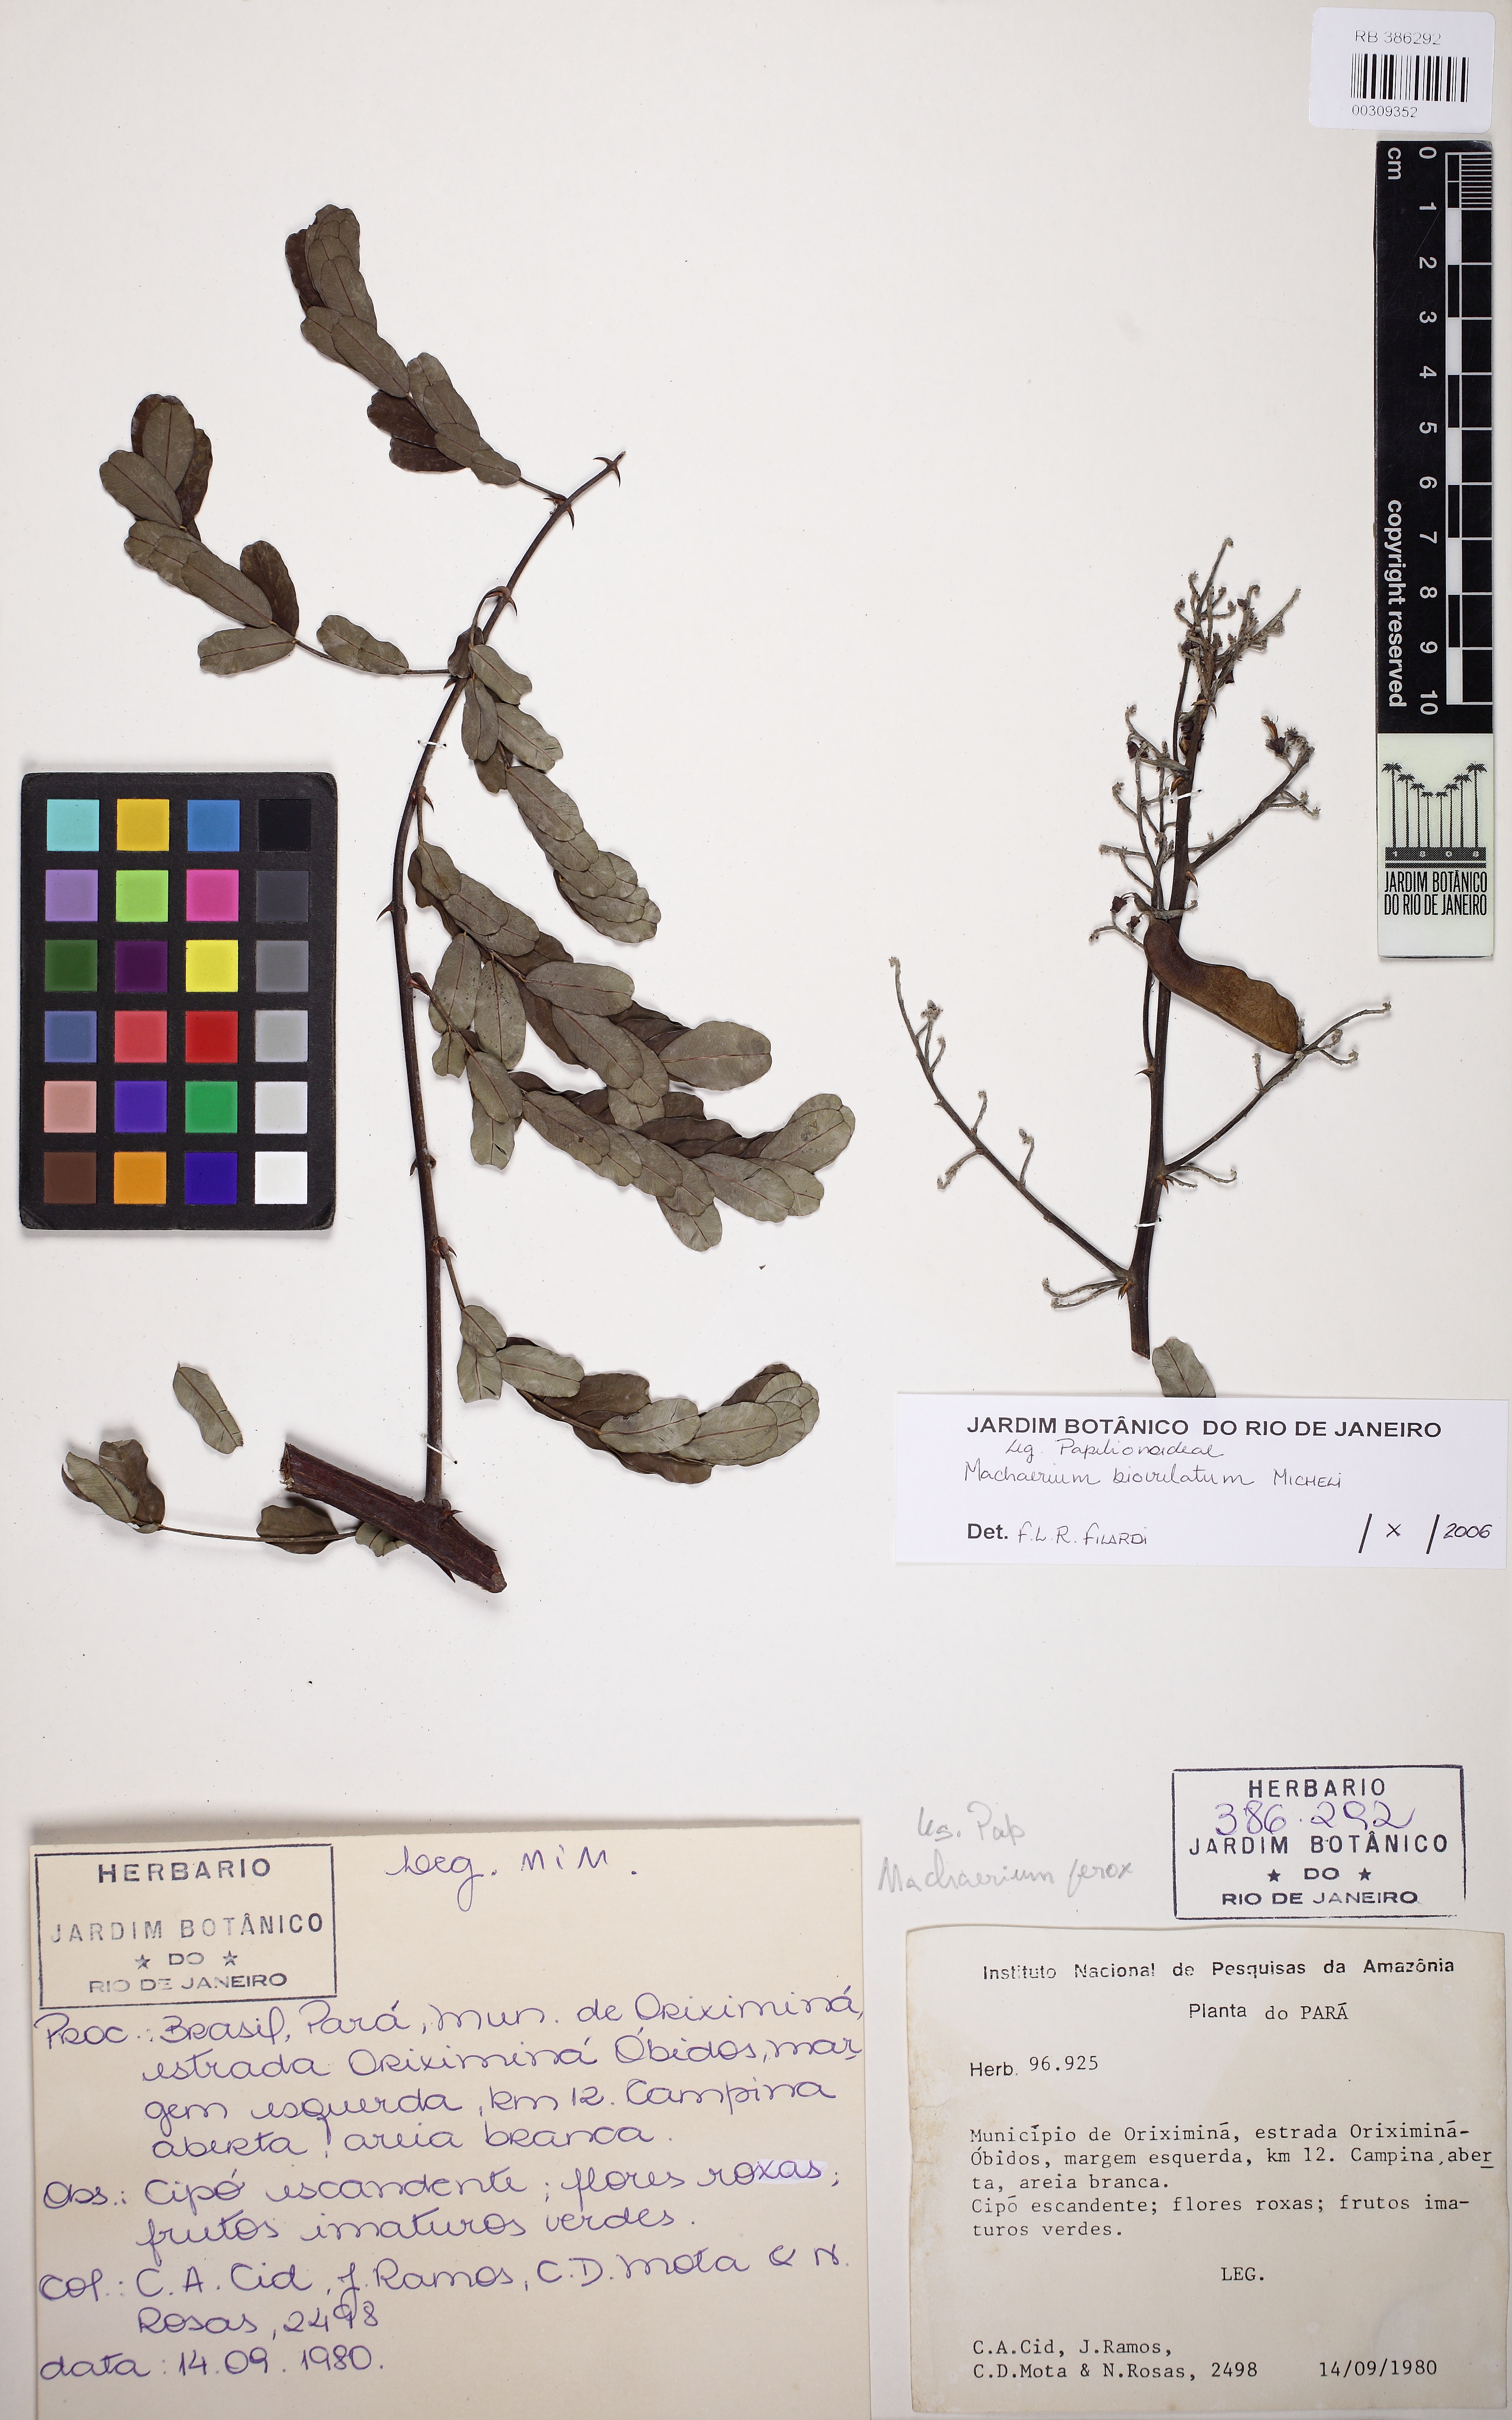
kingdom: Plantae
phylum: Tracheophyta
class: Magnoliopsida
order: Fabales
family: Fabaceae
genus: Machaerium
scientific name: Machaerium ferox
